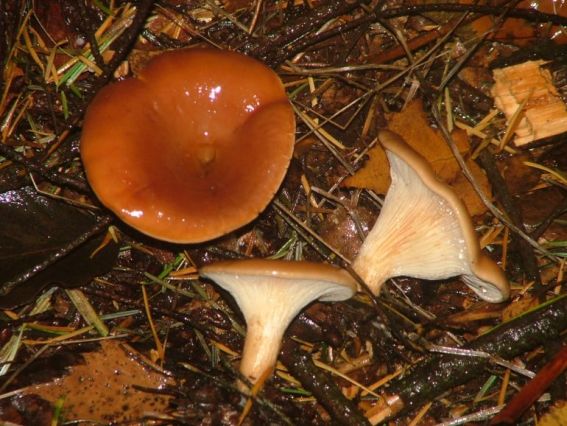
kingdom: Fungi
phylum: Basidiomycota
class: Agaricomycetes
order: Agaricales
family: Tricholomataceae
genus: Paralepista
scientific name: Paralepista flaccida
